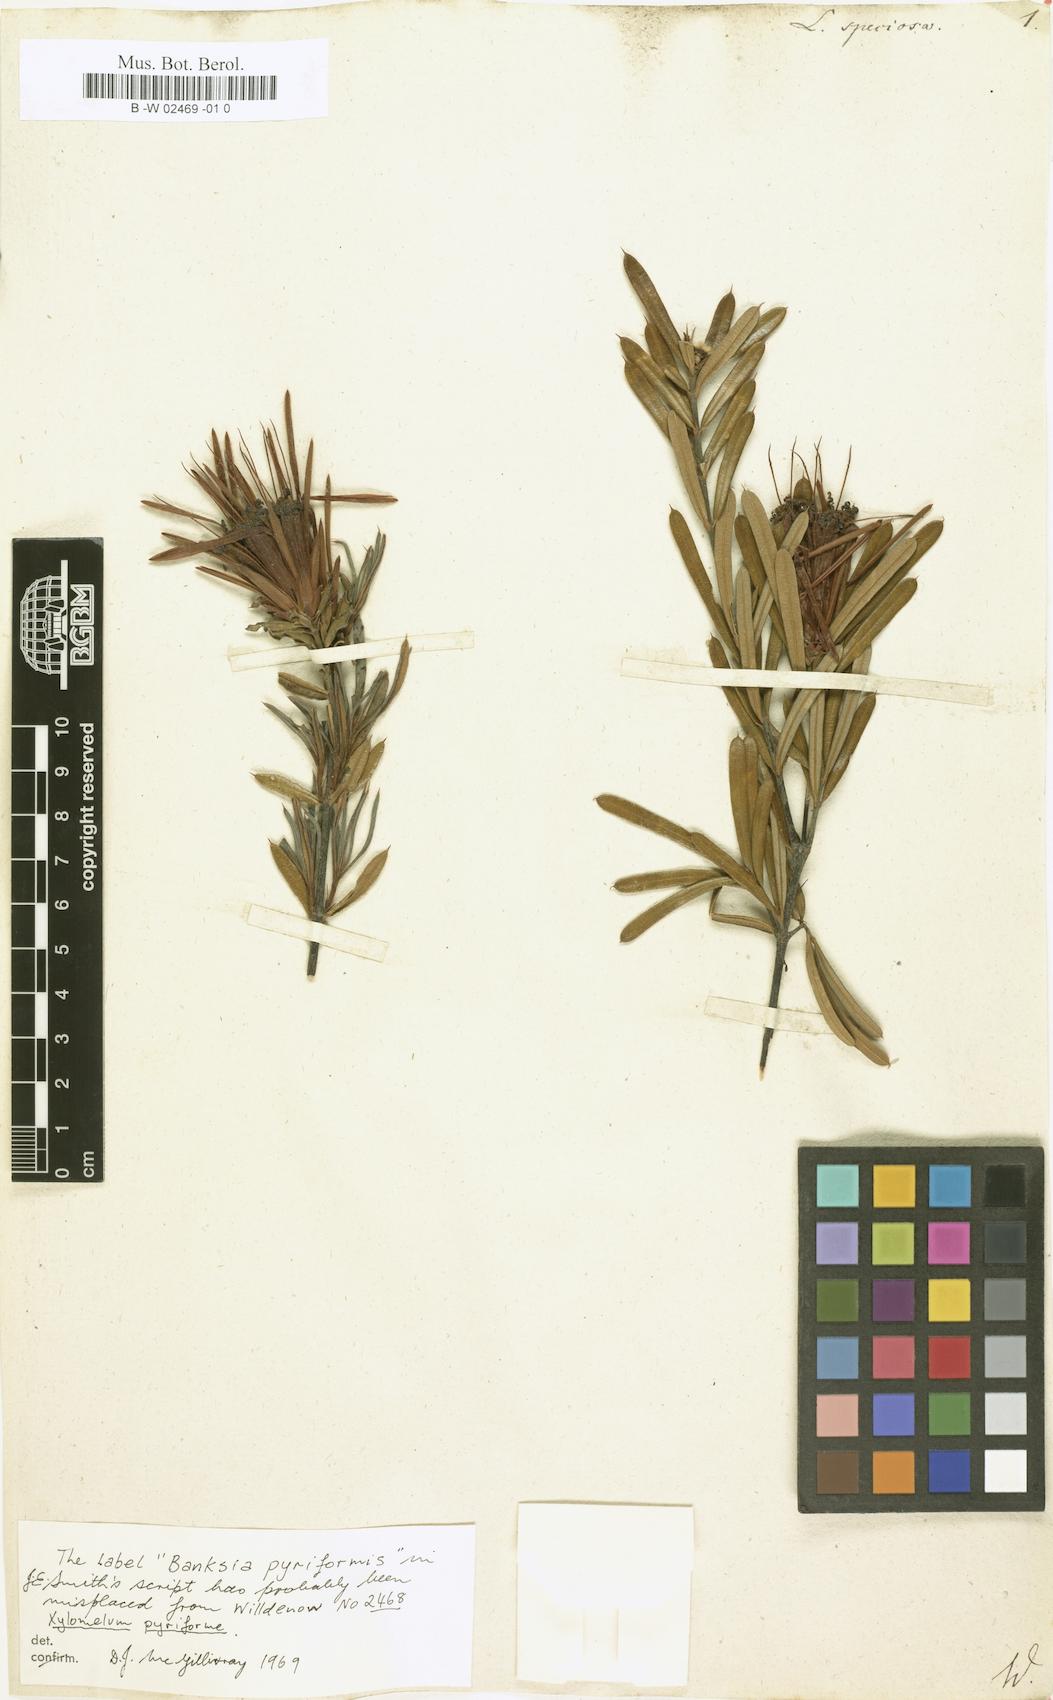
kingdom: Plantae
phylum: Tracheophyta
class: Magnoliopsida
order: Proteales
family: Proteaceae
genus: Lambertia
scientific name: Lambertia
